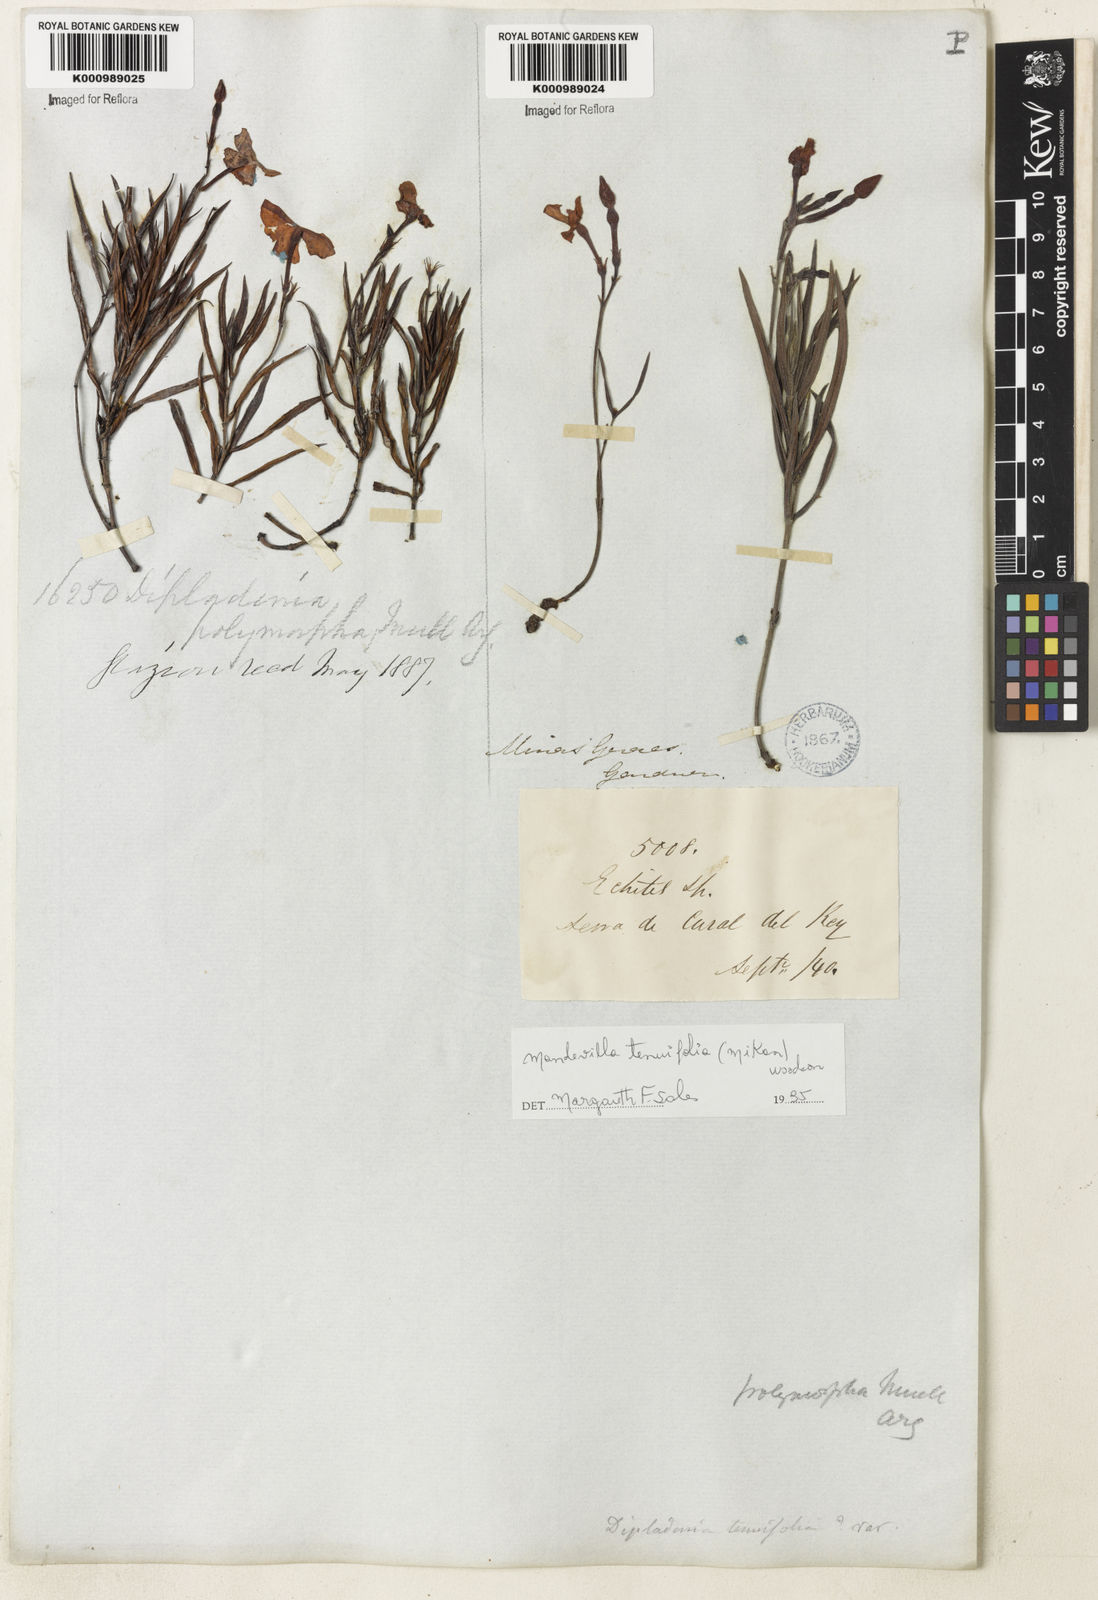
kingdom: Plantae
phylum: Tracheophyta
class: Magnoliopsida
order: Gentianales
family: Apocynaceae
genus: Mandevilla
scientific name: Mandevilla tenuifolia
